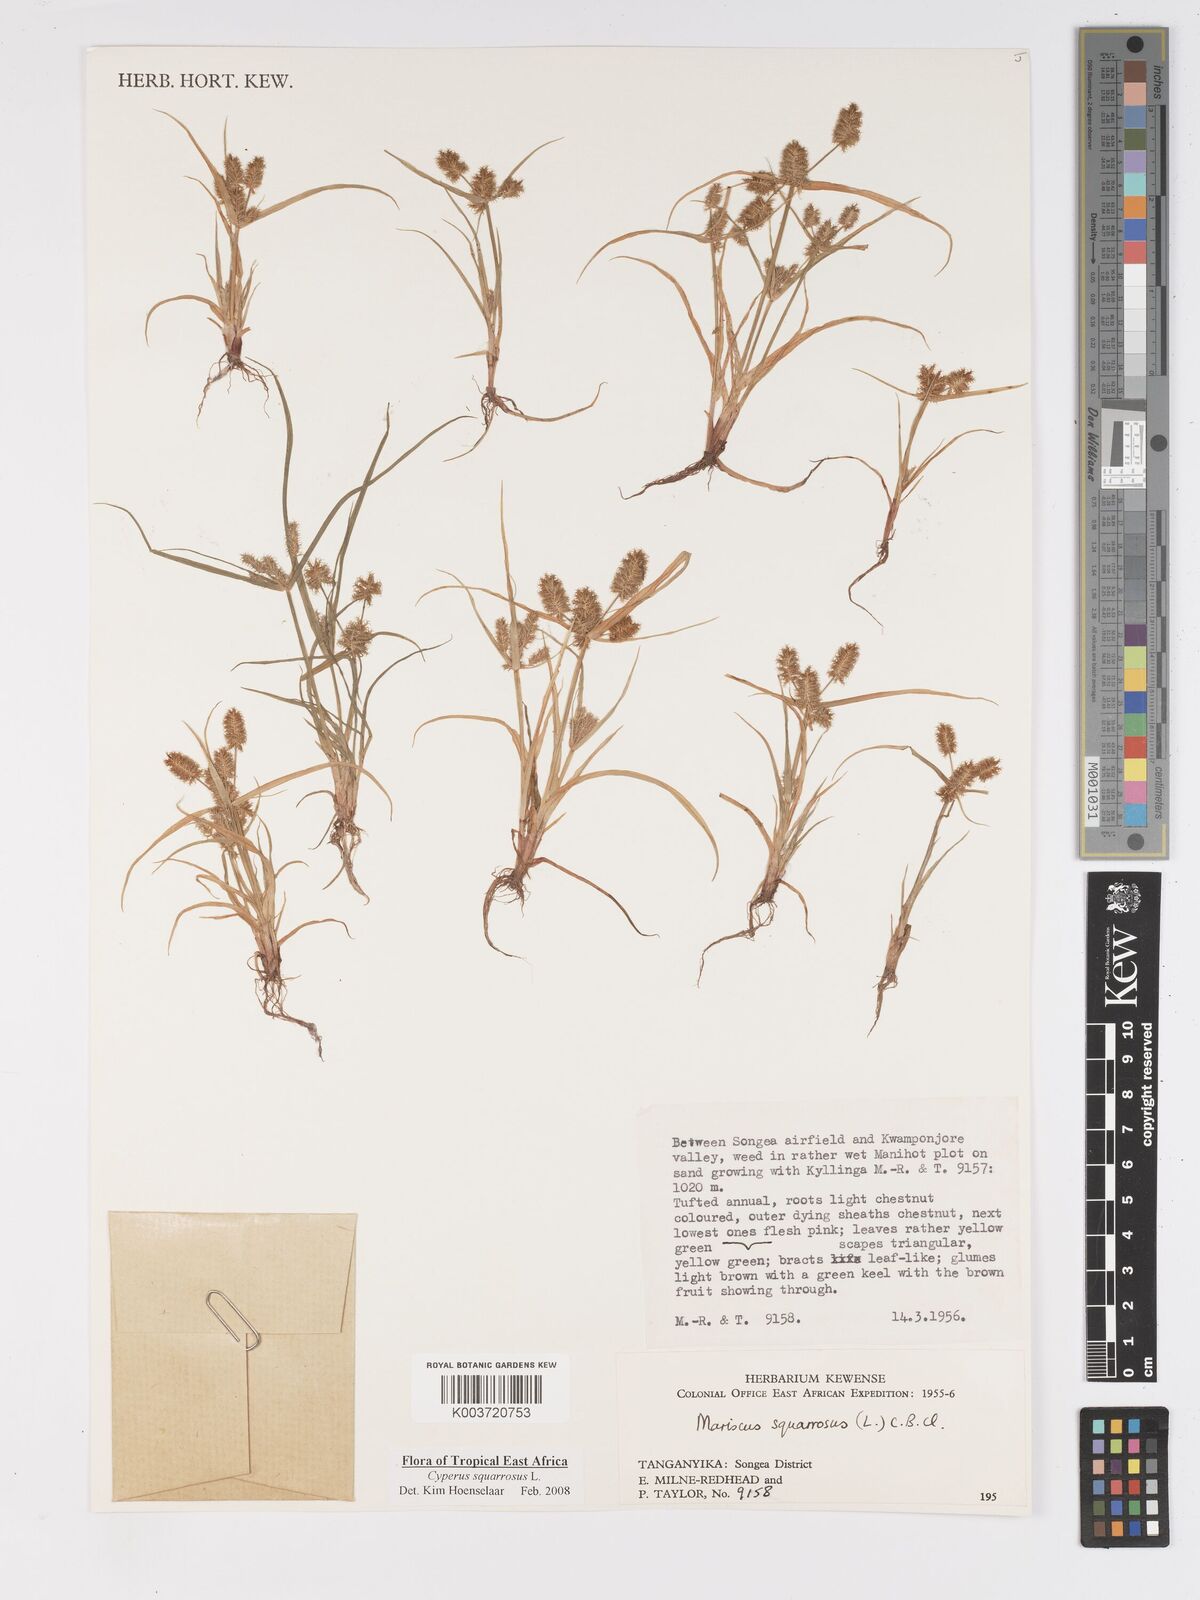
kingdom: Plantae
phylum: Tracheophyta
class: Liliopsida
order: Poales
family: Cyperaceae
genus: Cyperus
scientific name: Cyperus squarrosus
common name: Awned cyperus
